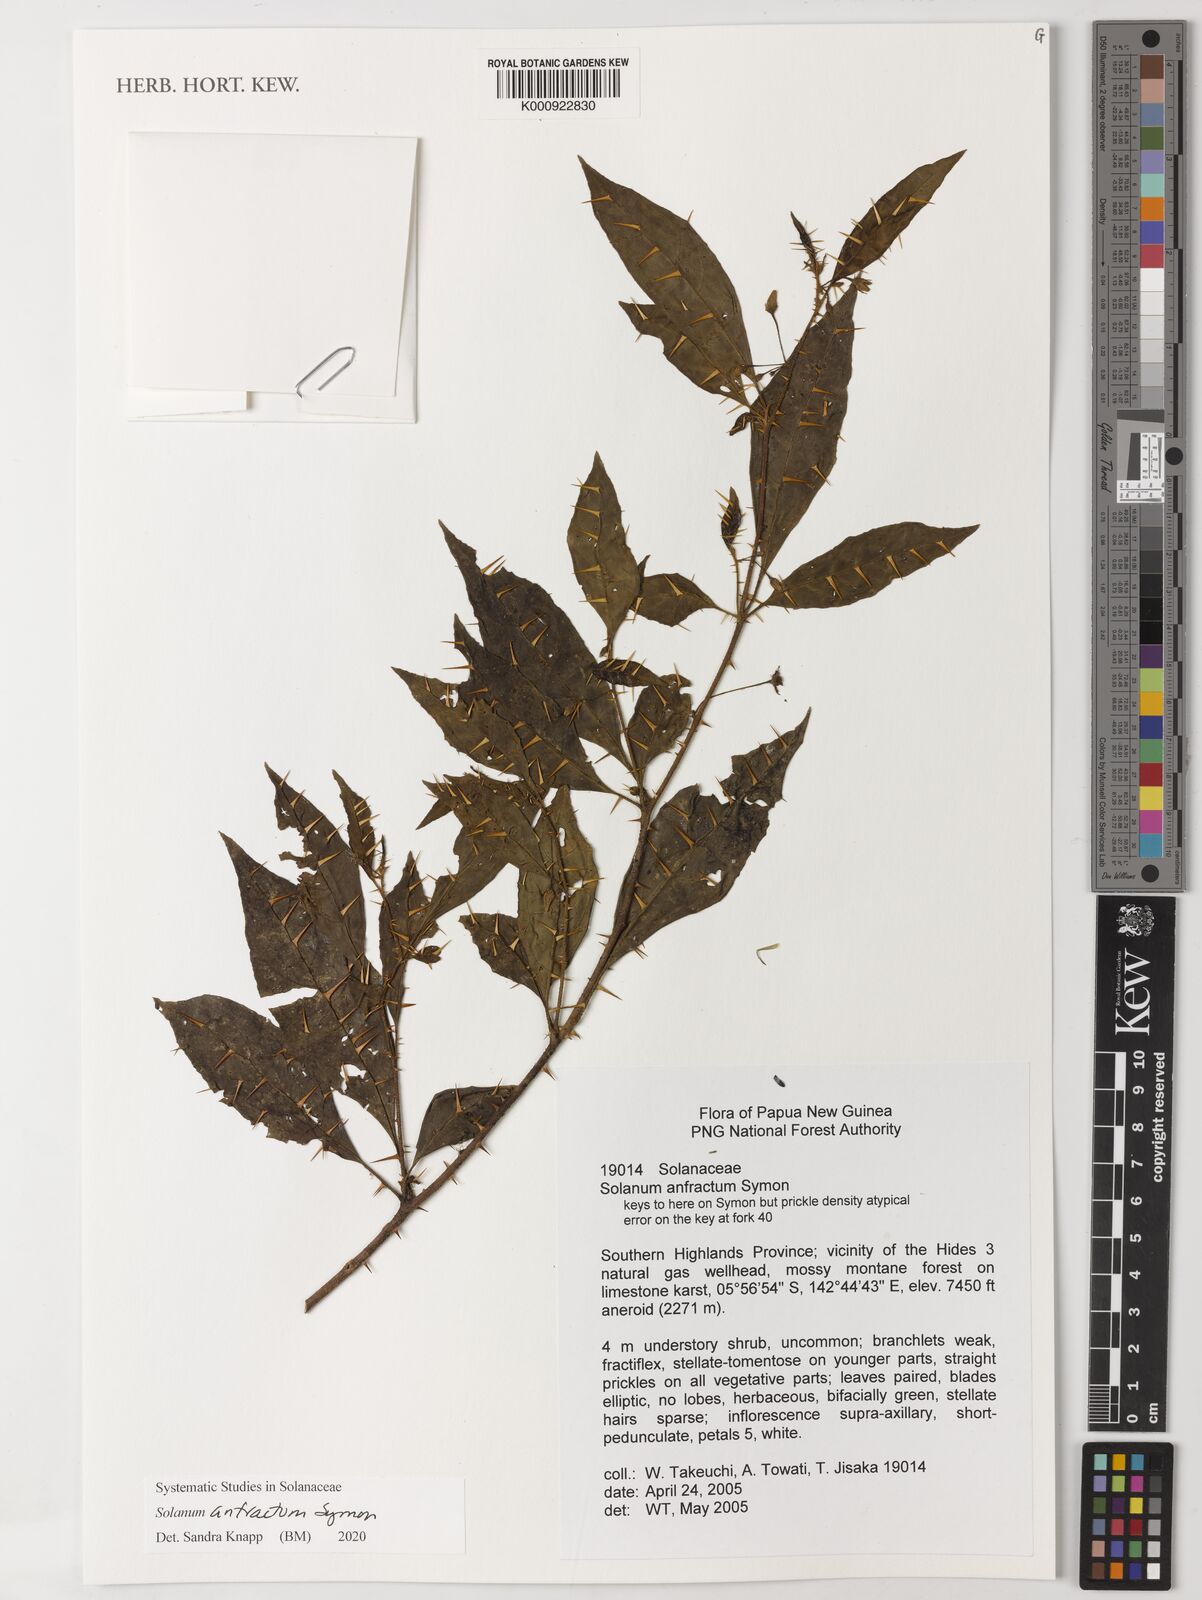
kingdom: Plantae
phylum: Tracheophyta
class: Magnoliopsida
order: Solanales
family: Solanaceae
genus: Solanum
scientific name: Solanum anfractum
